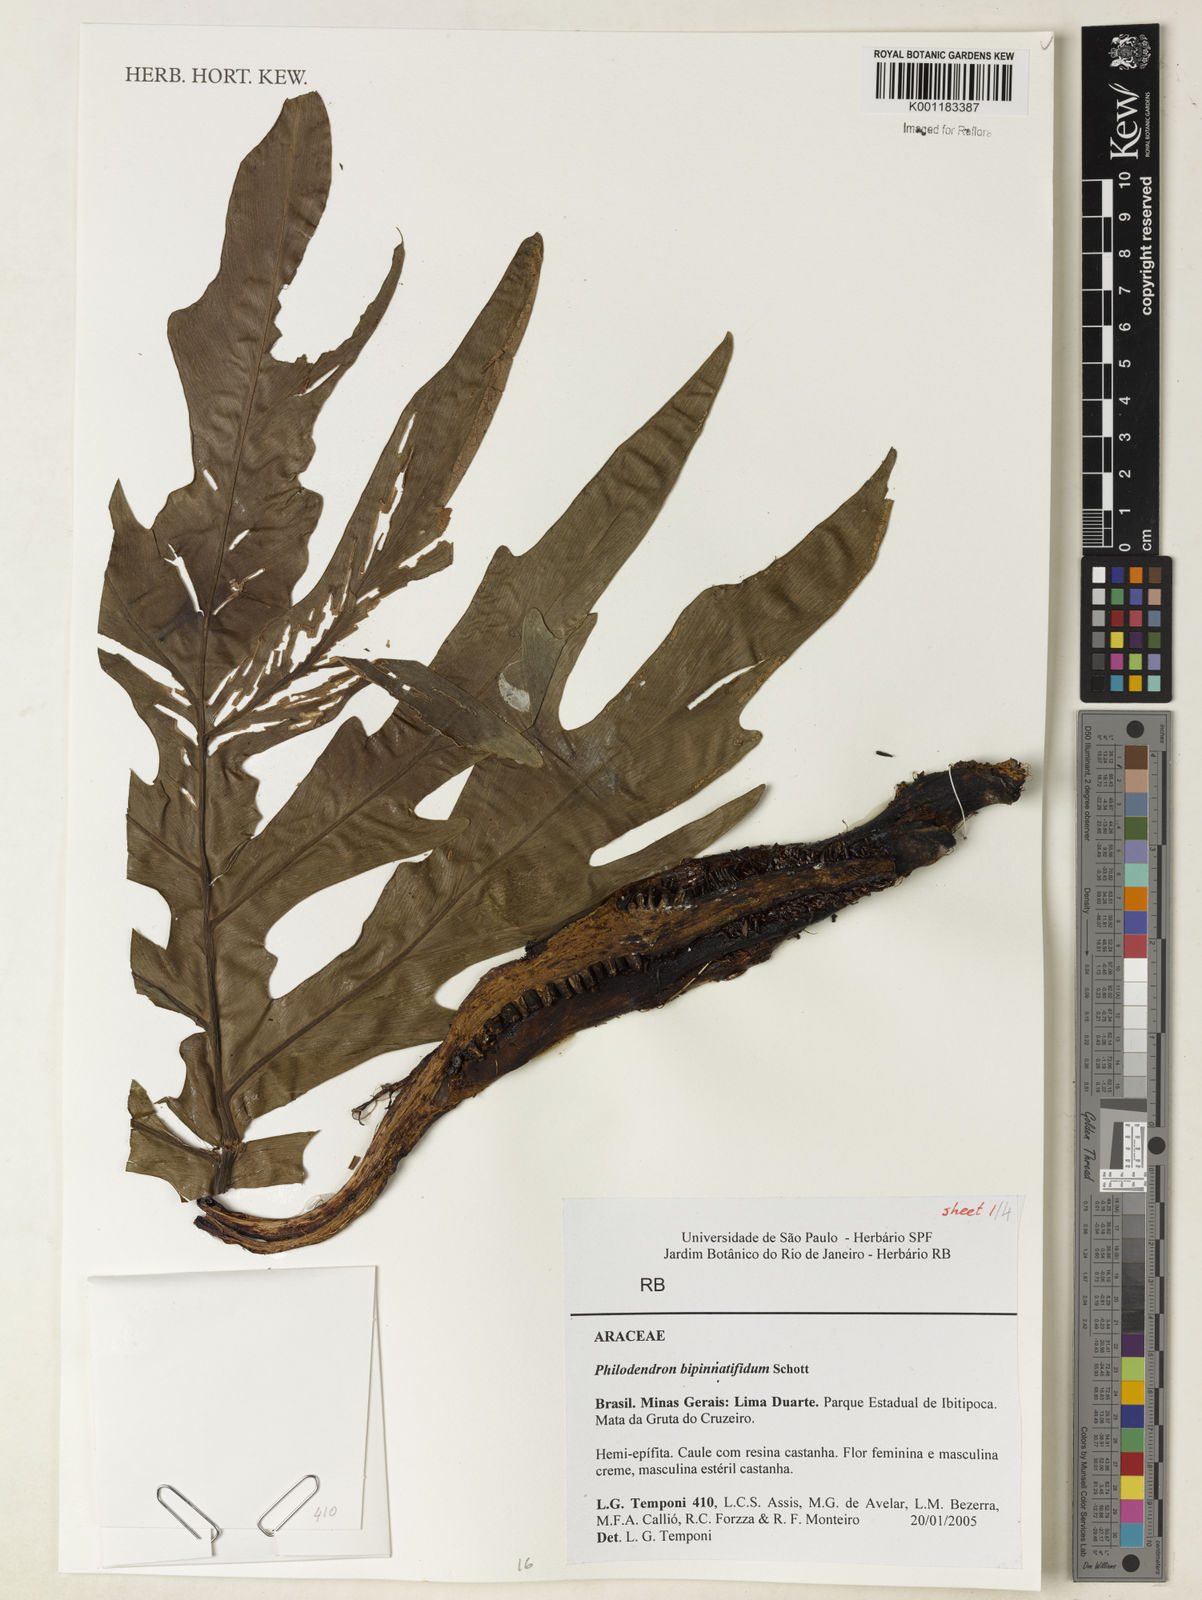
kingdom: Plantae
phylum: Tracheophyta
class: Liliopsida
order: Alismatales
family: Araceae
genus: Philodendron
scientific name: Philodendron
